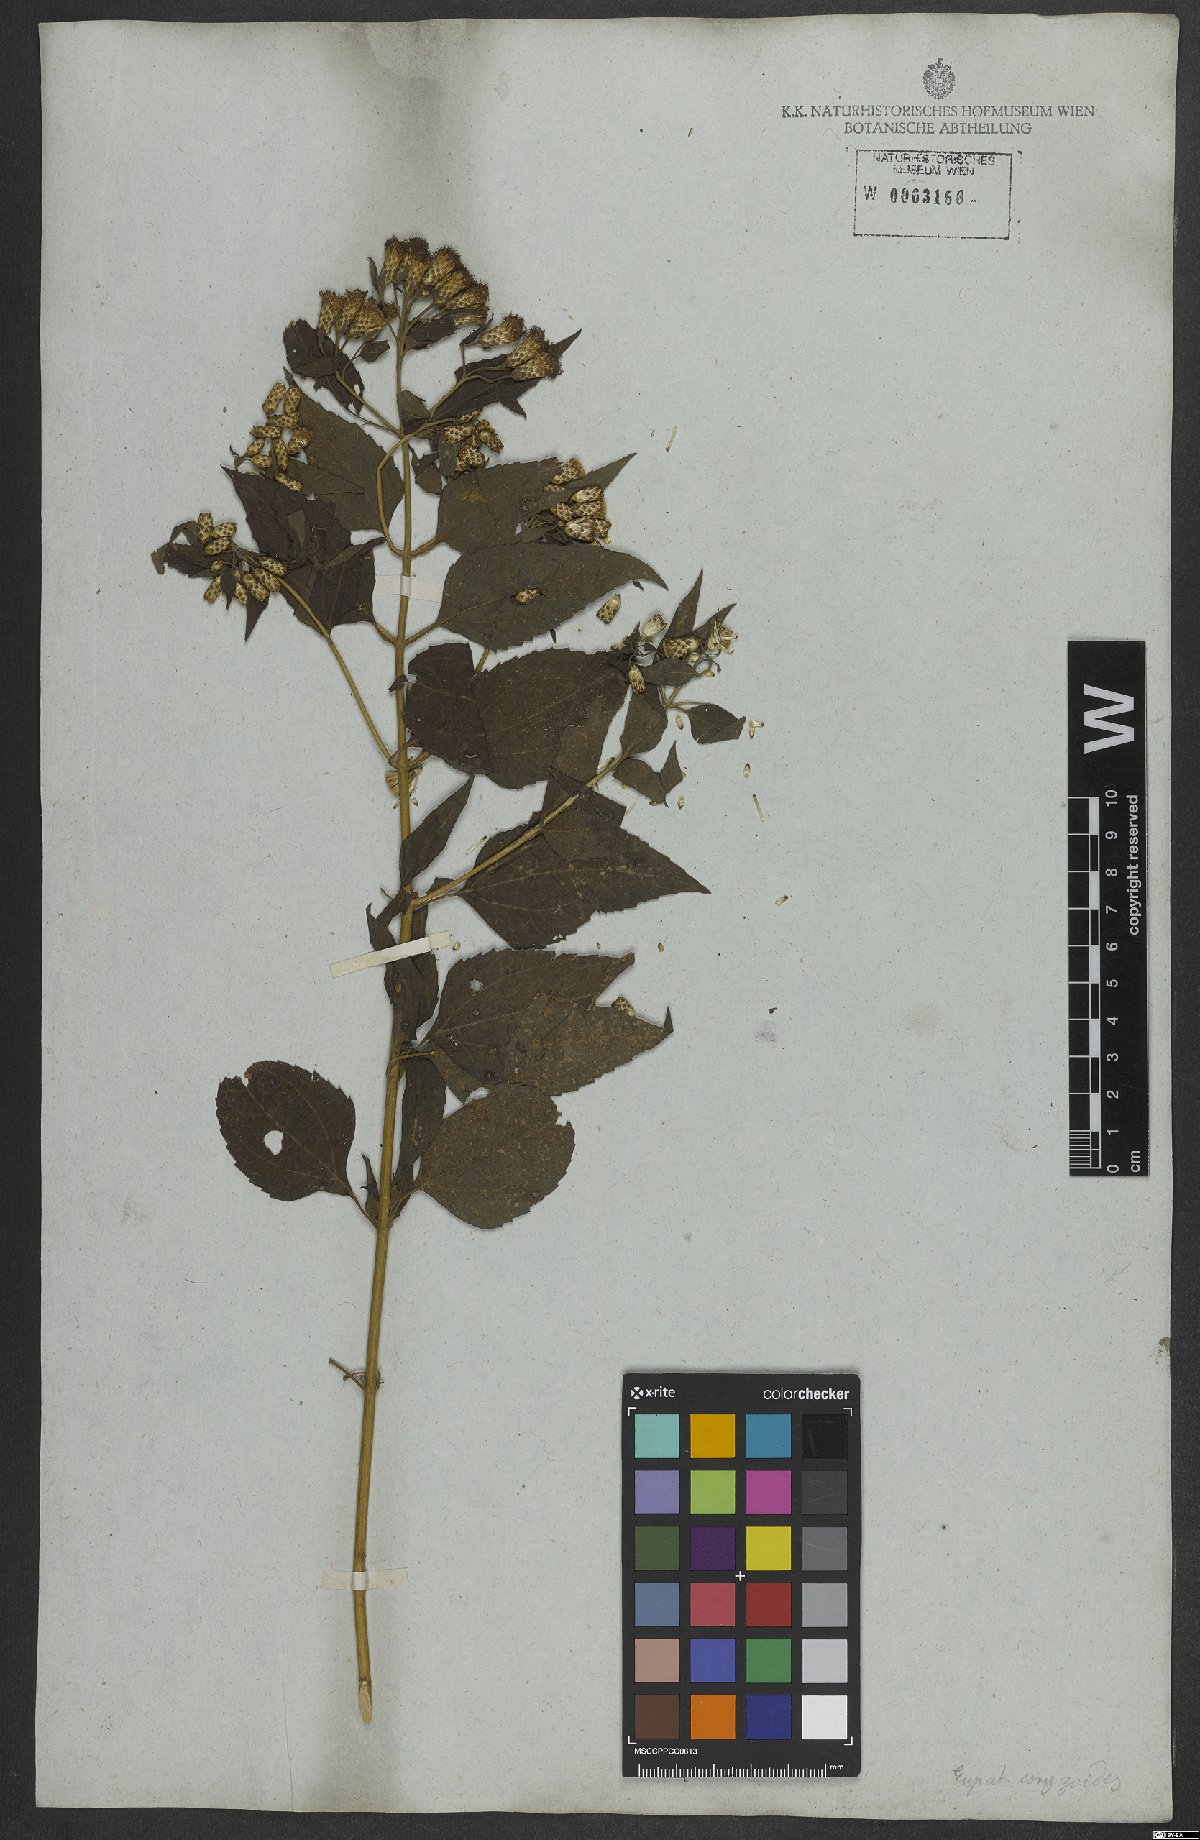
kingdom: Plantae
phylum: Tracheophyta
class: Magnoliopsida
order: Asterales
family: Asteraceae
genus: Chromolaena
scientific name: Chromolaena odorata
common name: Siamweed
